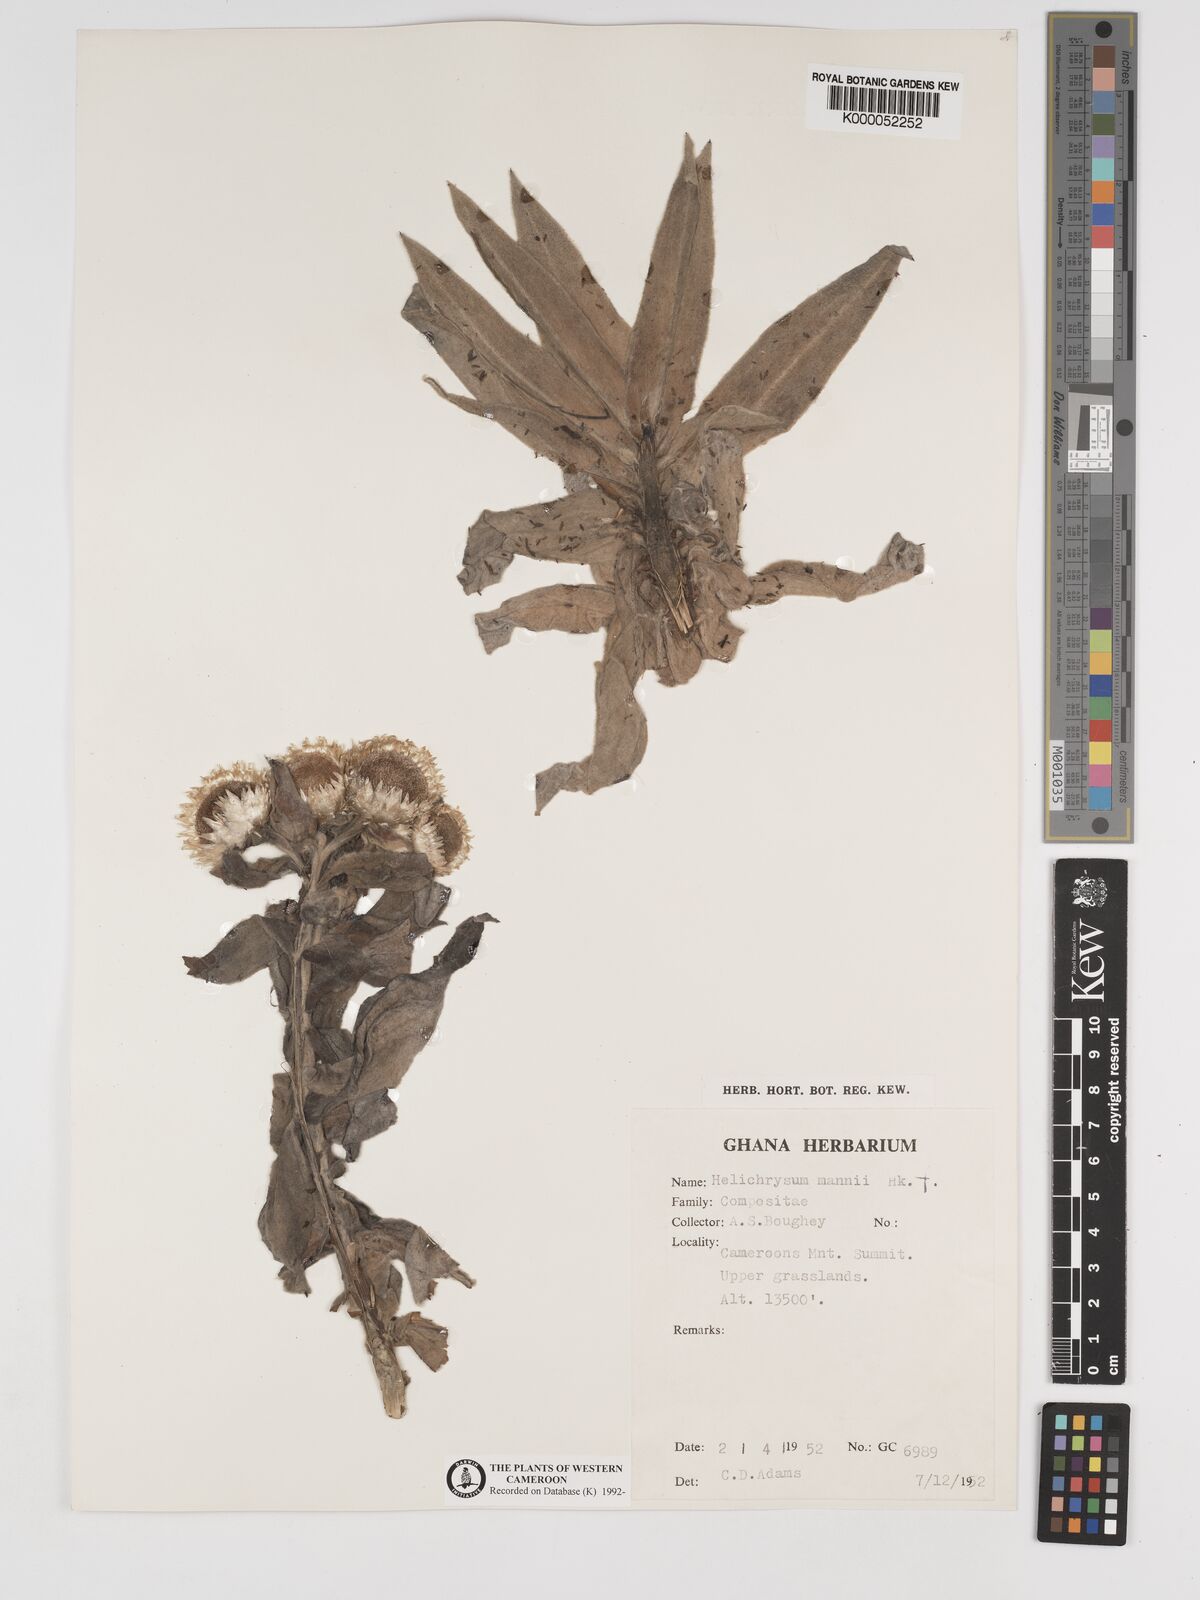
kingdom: Plantae
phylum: Tracheophyta
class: Magnoliopsida
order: Asterales
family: Asteraceae
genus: Helichrysum
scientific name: Helichrysum mannii
